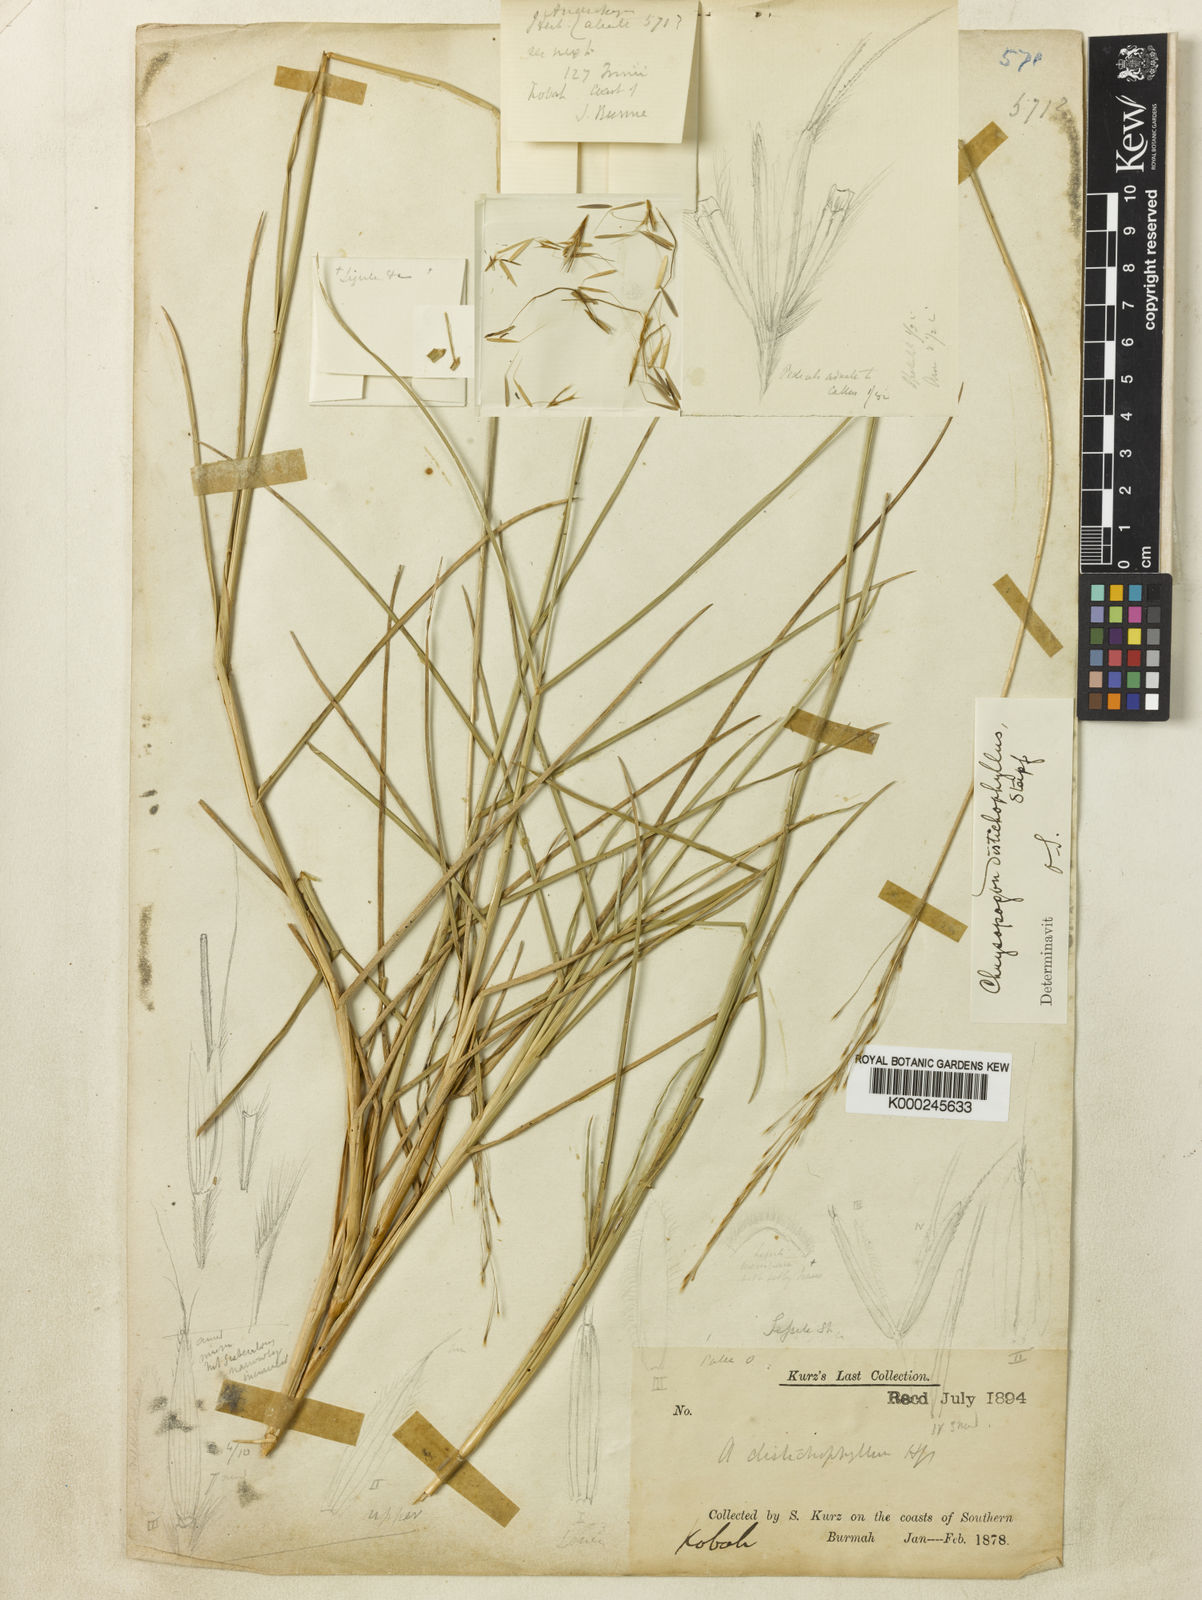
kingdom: Plantae
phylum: Tracheophyta
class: Liliopsida
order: Poales
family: Poaceae
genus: Chrysopogon
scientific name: Chrysopogon orientalis
